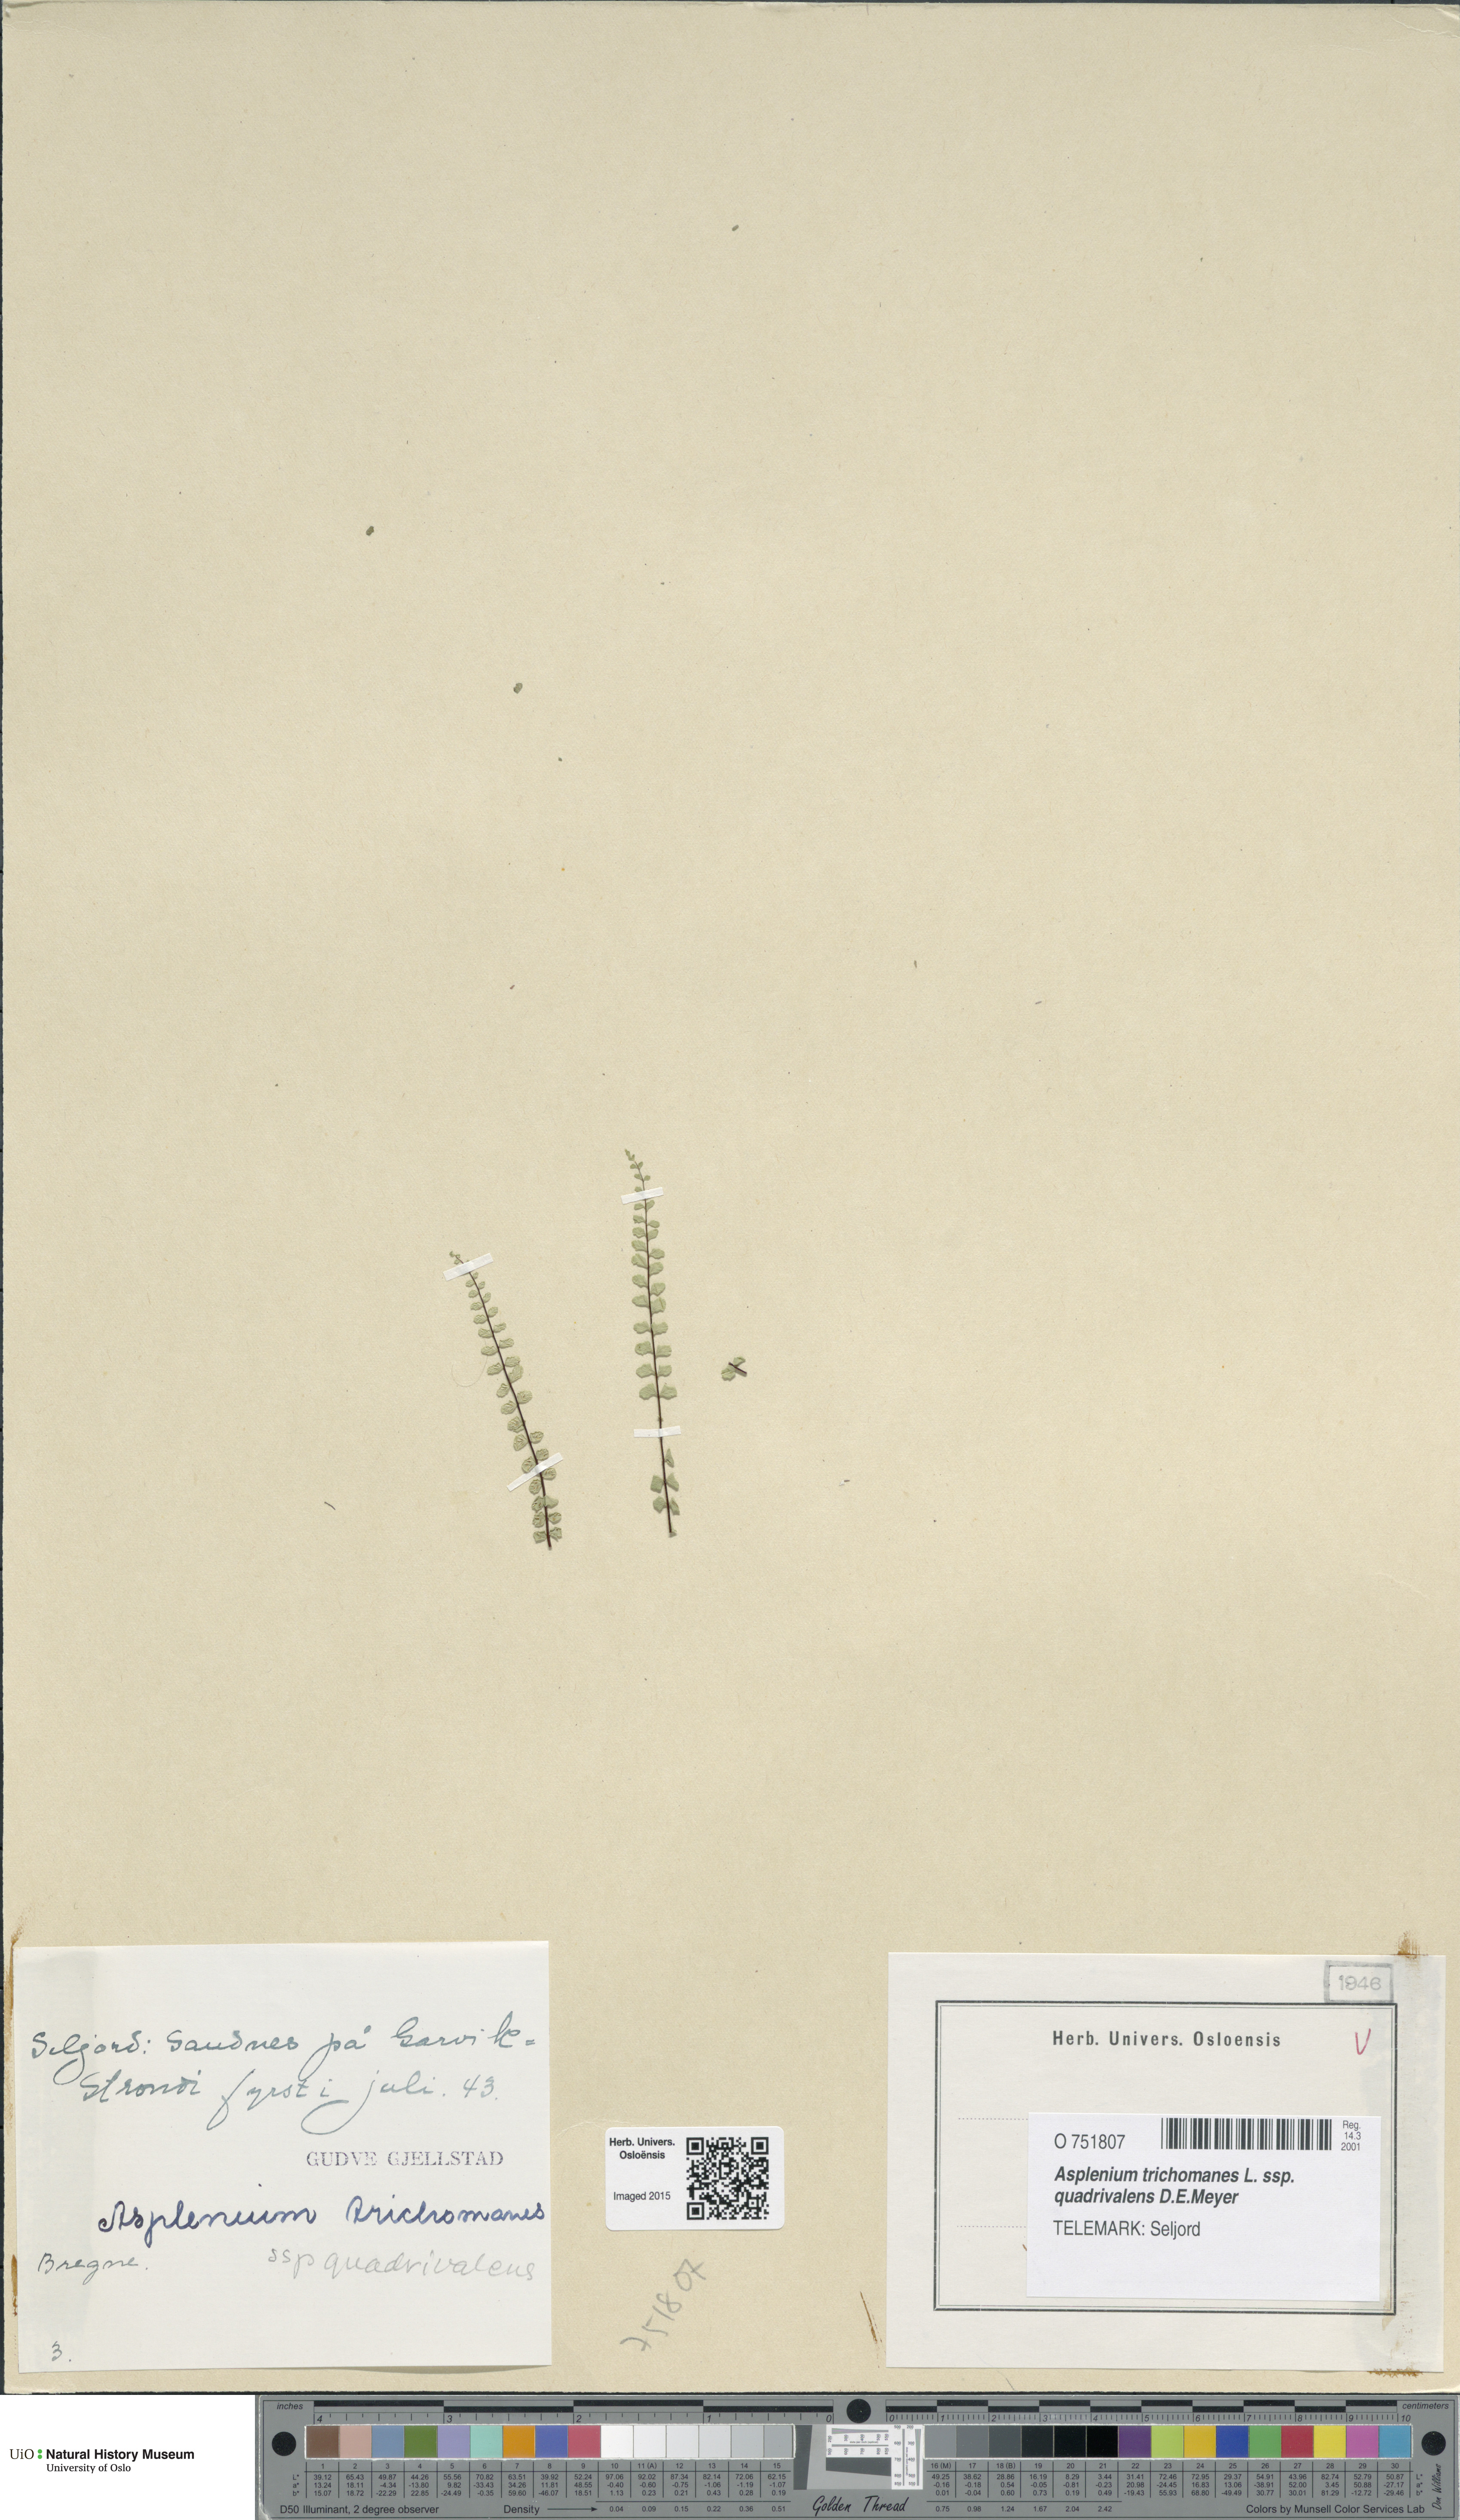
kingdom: Plantae
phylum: Tracheophyta
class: Polypodiopsida
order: Polypodiales
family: Aspleniaceae
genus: Asplenium
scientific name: Asplenium quadrivalens
